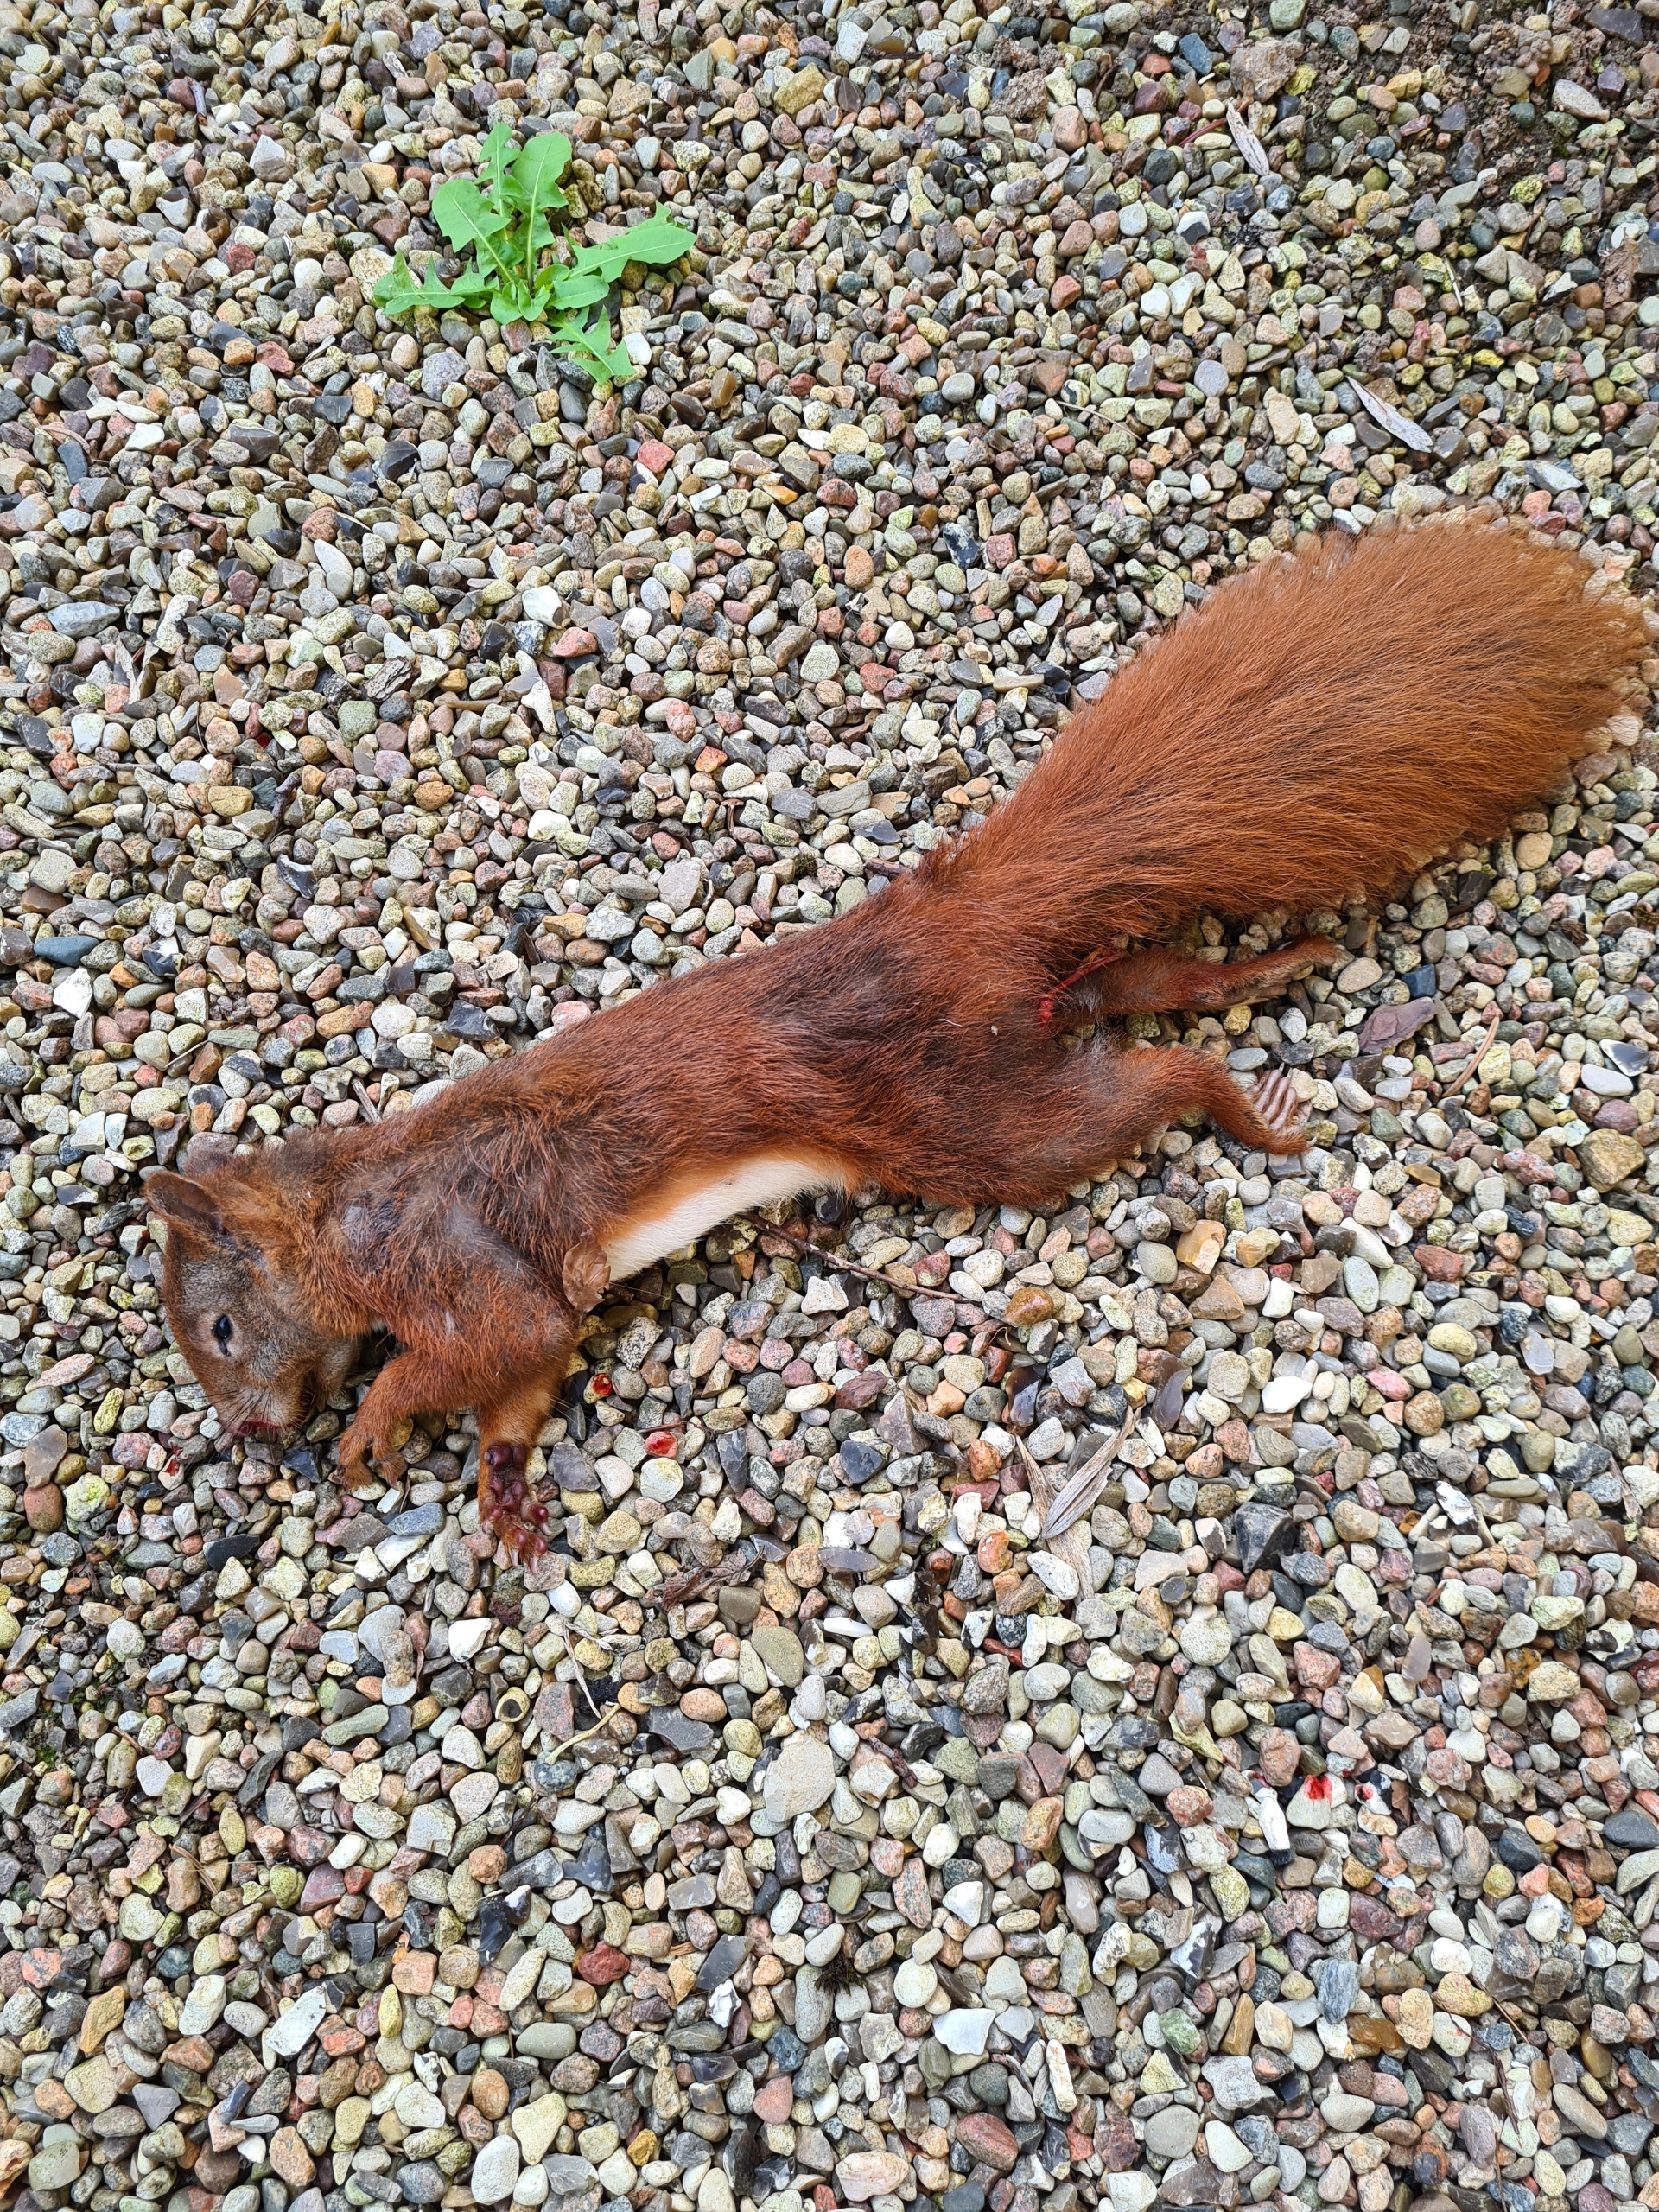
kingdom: Animalia
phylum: Chordata
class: Mammalia
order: Rodentia
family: Sciuridae
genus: Sciurus
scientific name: Sciurus vulgaris
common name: Egern
